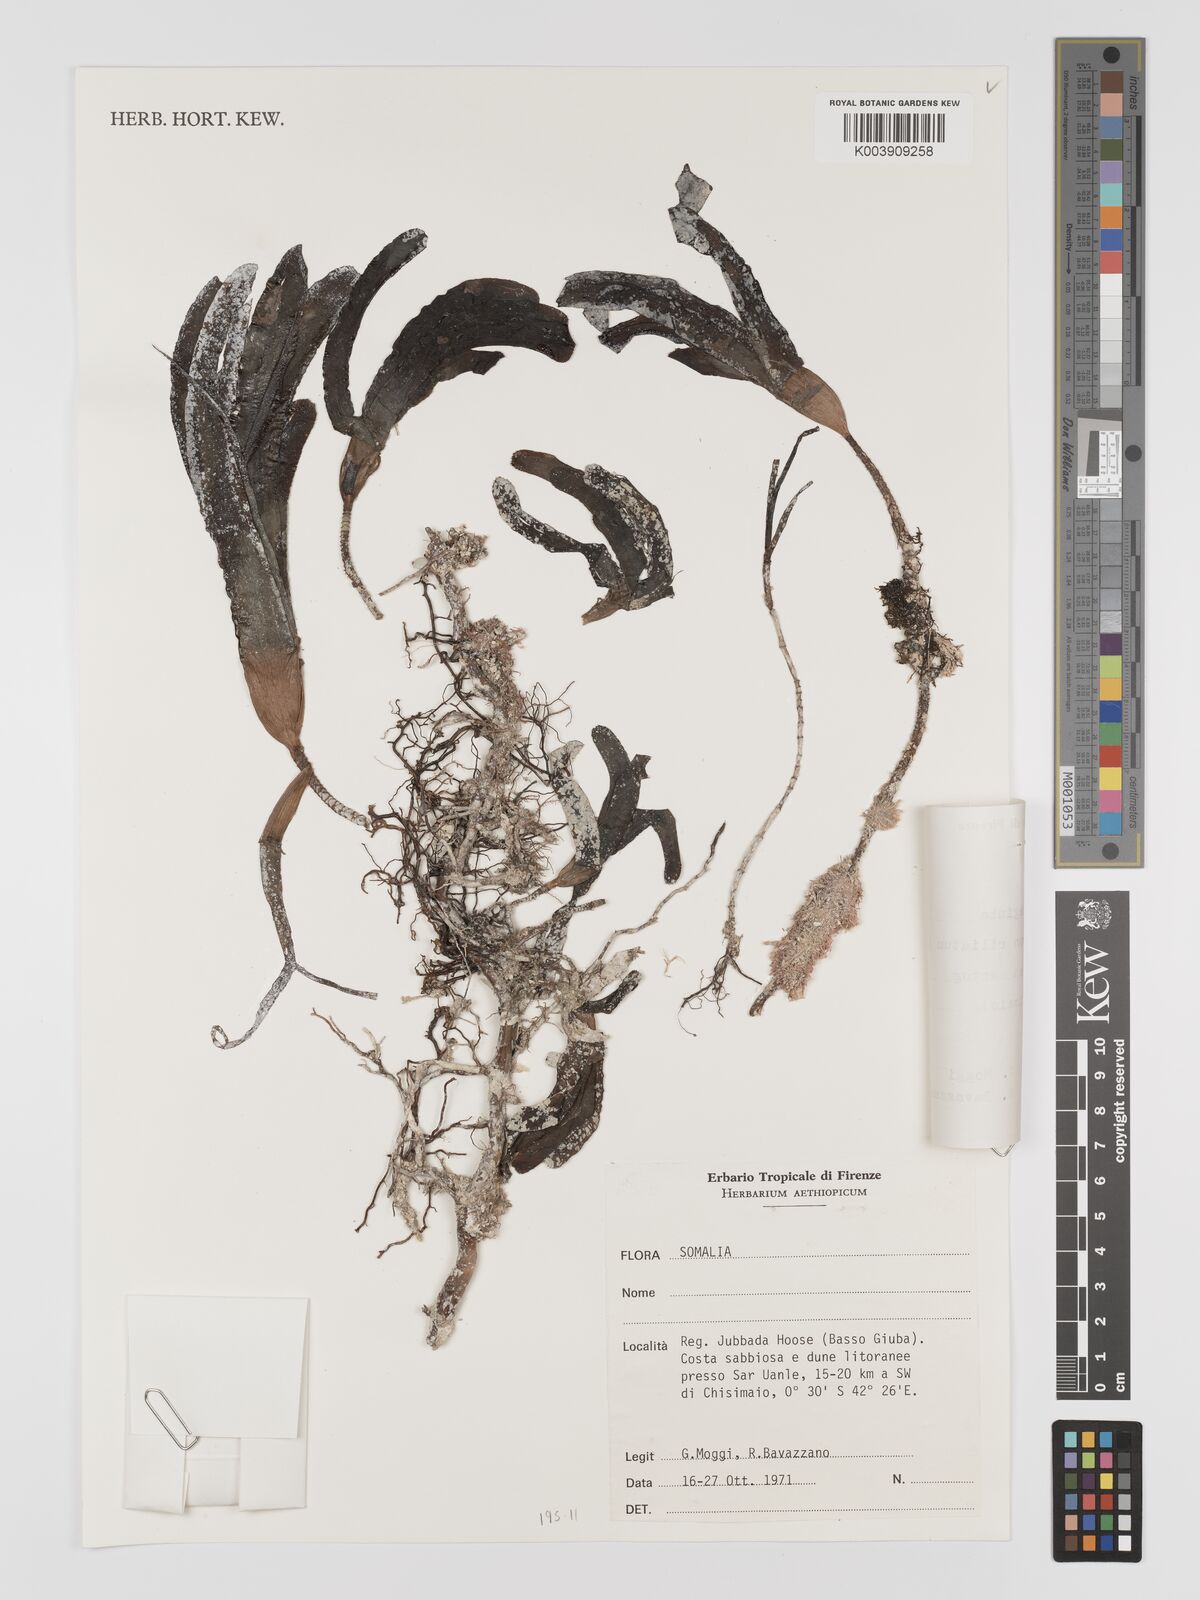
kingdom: Plantae
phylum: Tracheophyta
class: Liliopsida
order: Alismatales
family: Cymodoceaceae
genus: Thalassodendron
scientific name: Thalassodendron ciliatum
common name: Species code: tc
